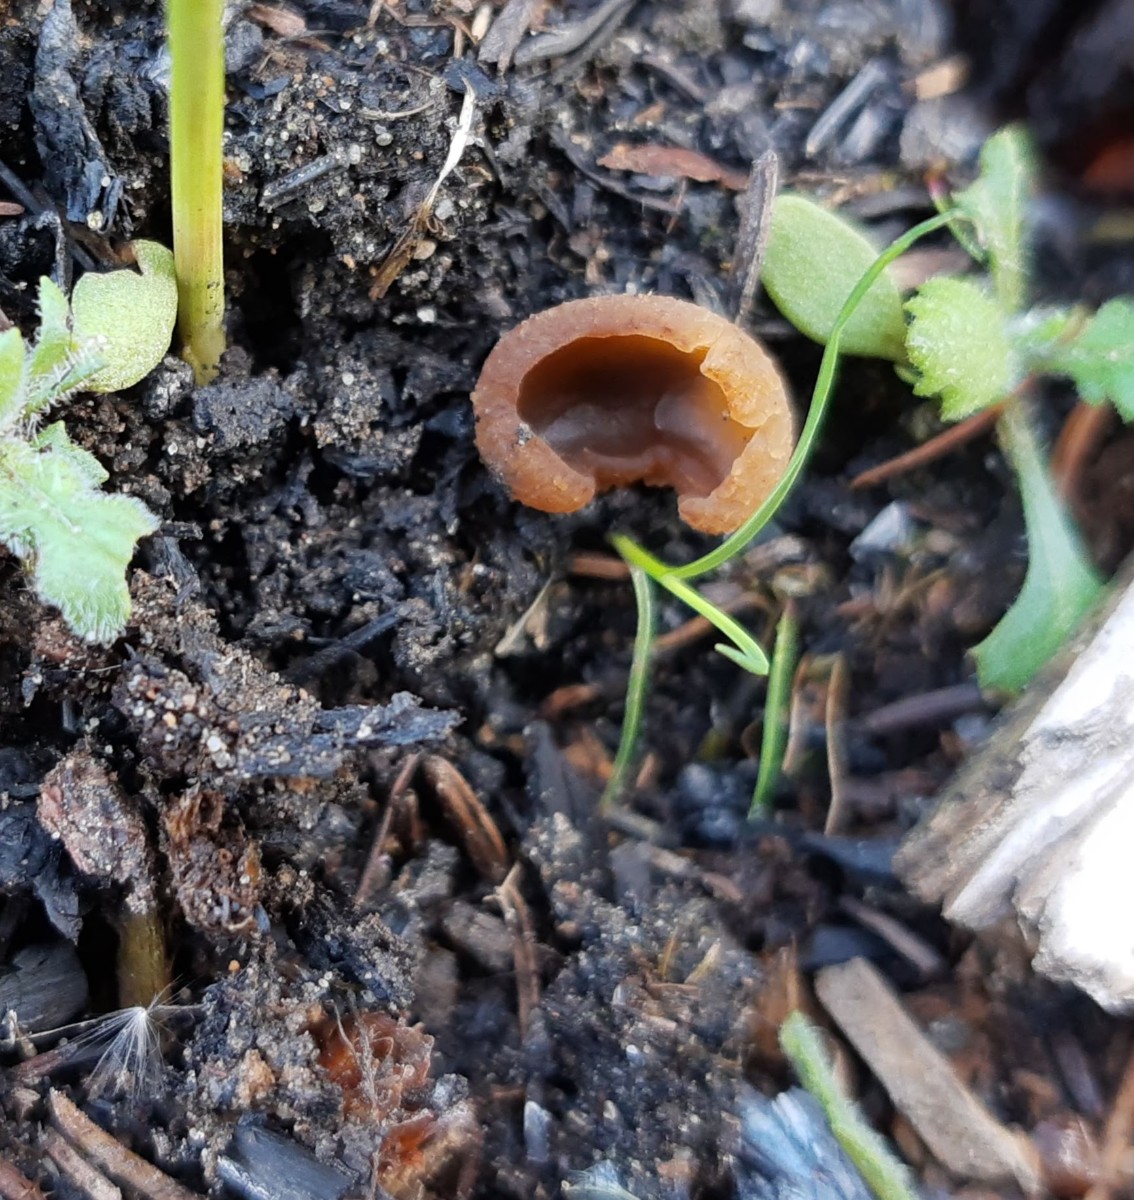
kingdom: Fungi
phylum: Ascomycota
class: Pezizomycetes
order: Pezizales
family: Pezizaceae
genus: Peziza
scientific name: Peziza echinospora
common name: pigsporet bægersvamp
